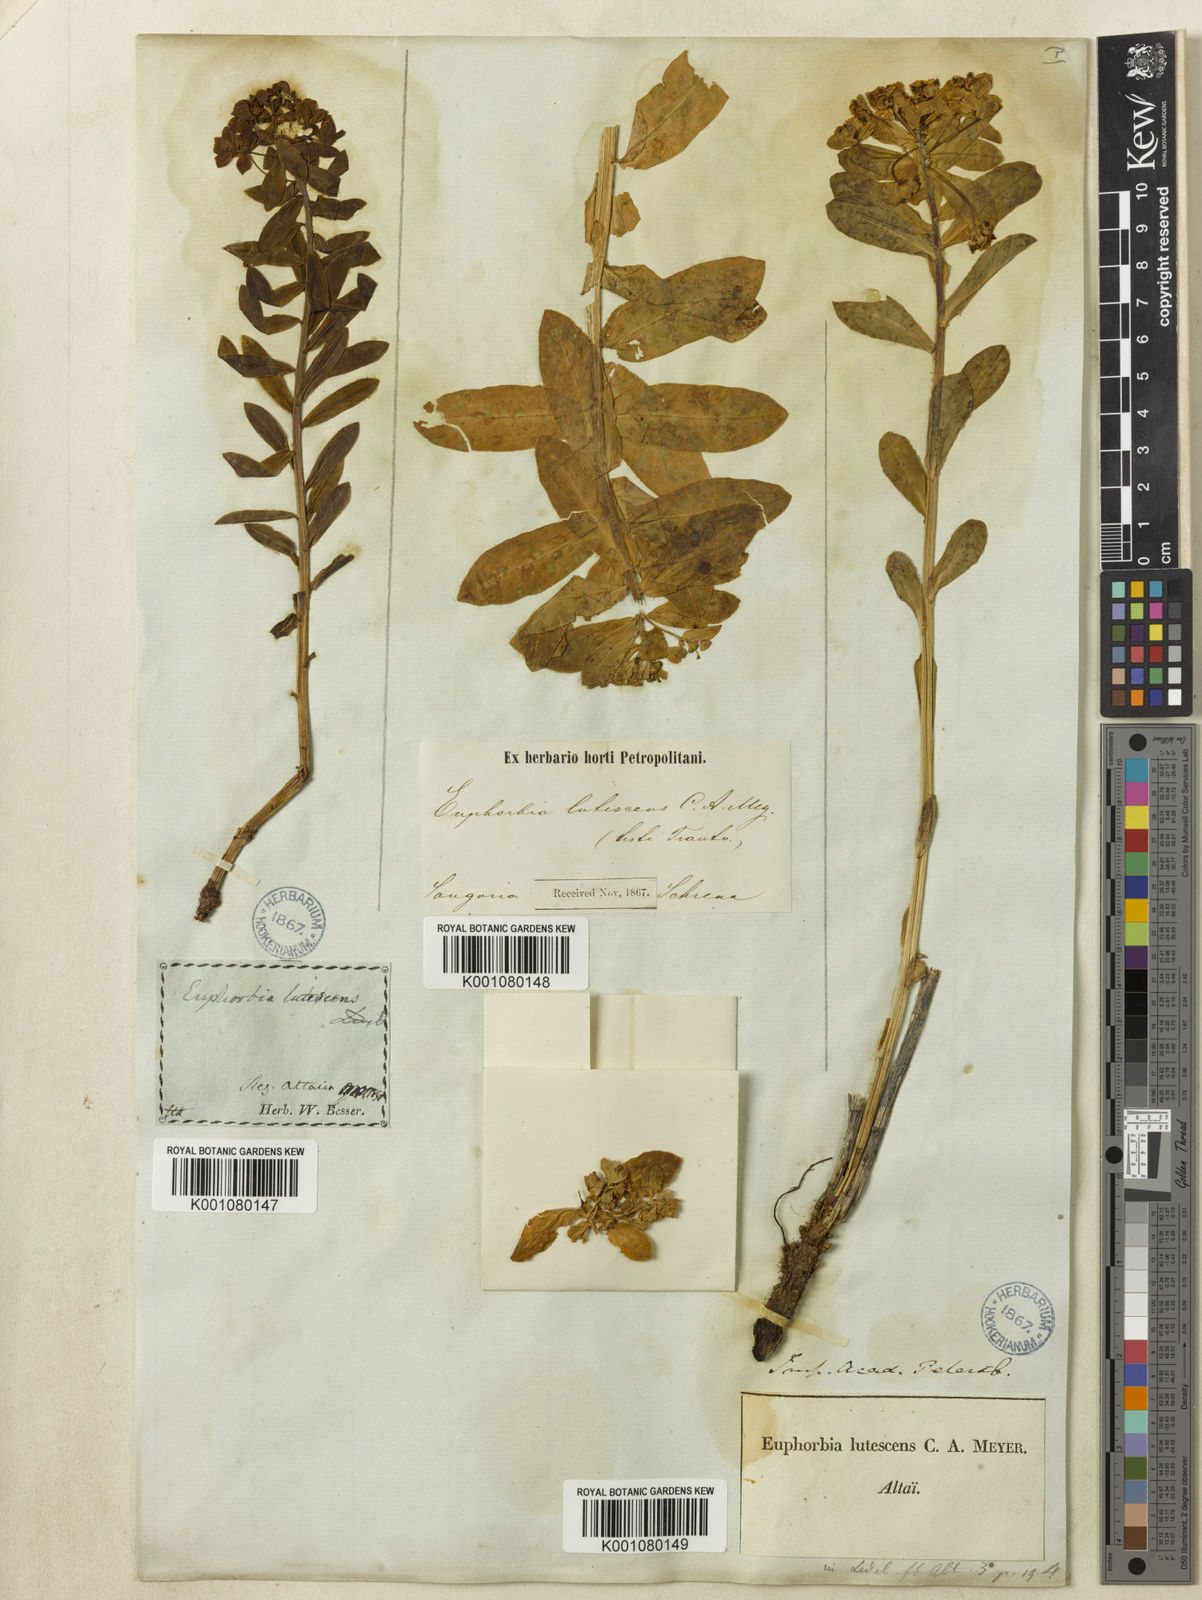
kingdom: Plantae
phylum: Tracheophyta
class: Magnoliopsida
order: Malpighiales
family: Euphorbiaceae
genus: Euphorbia
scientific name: Euphorbia
